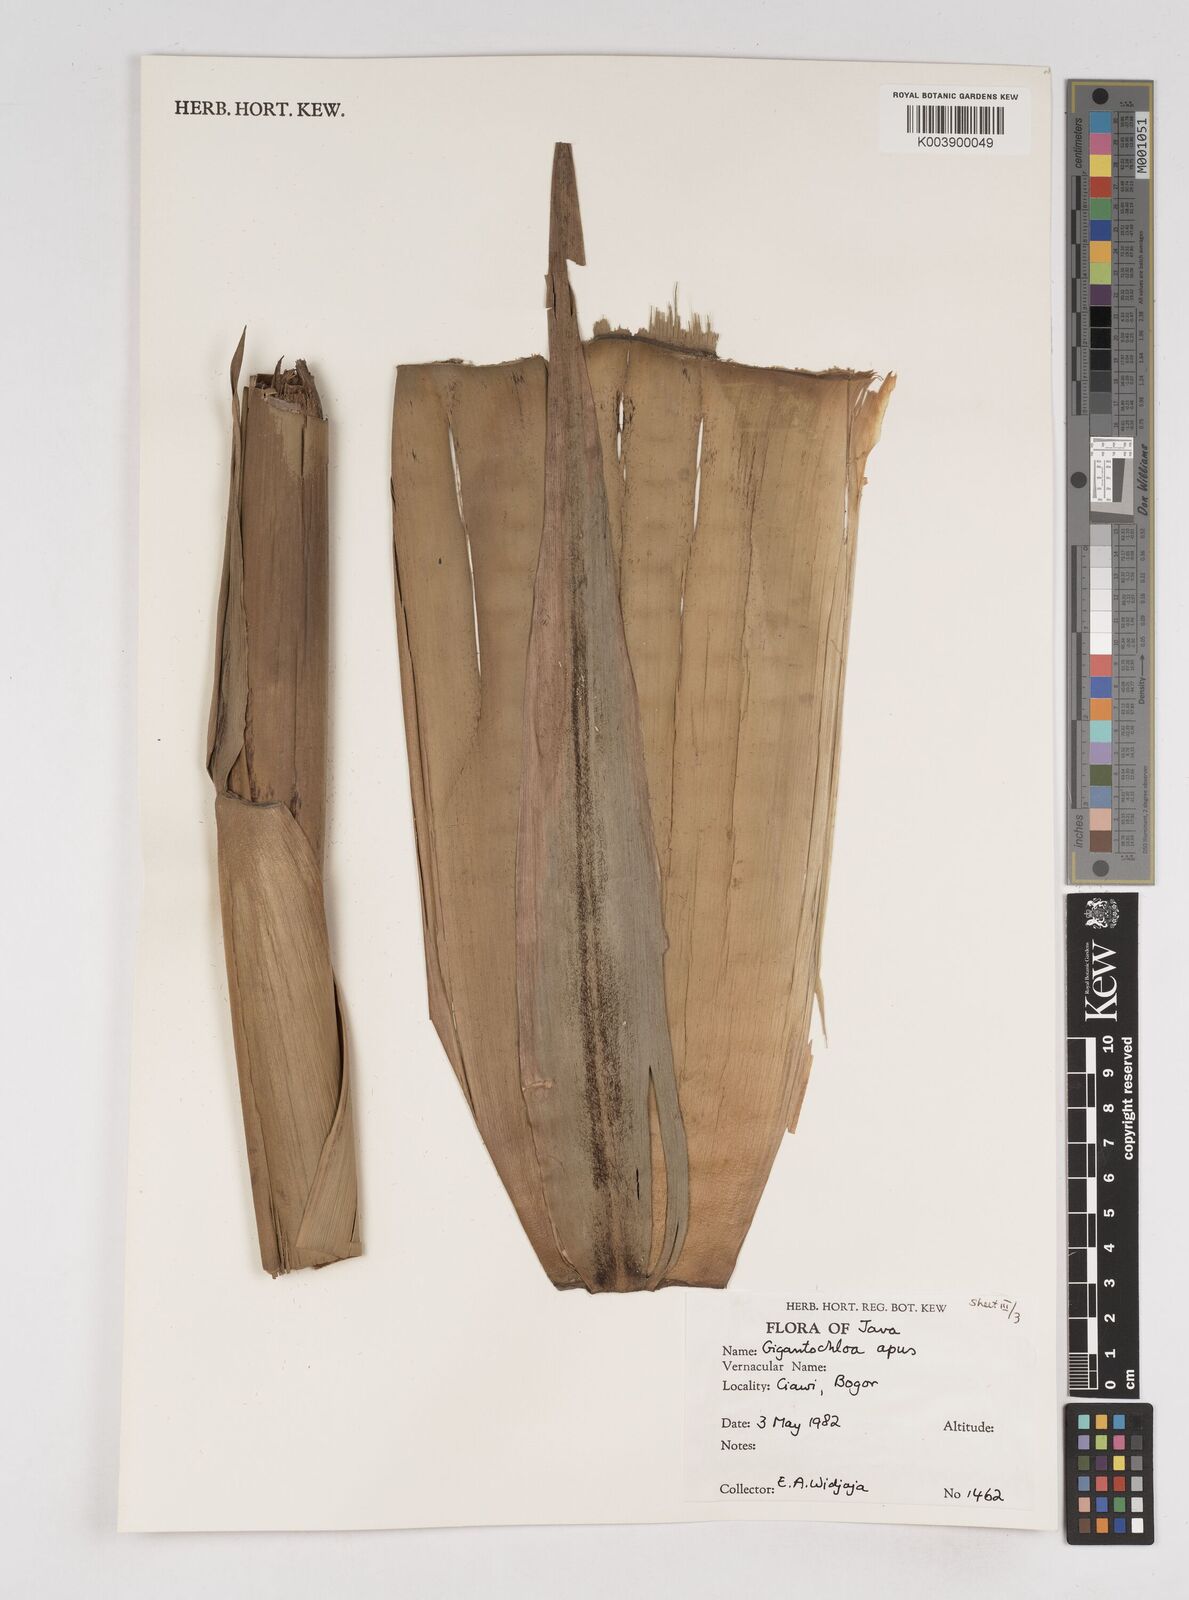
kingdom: Plantae
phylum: Tracheophyta
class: Liliopsida
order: Poales
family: Poaceae
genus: Gigantochloa
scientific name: Gigantochloa apus
